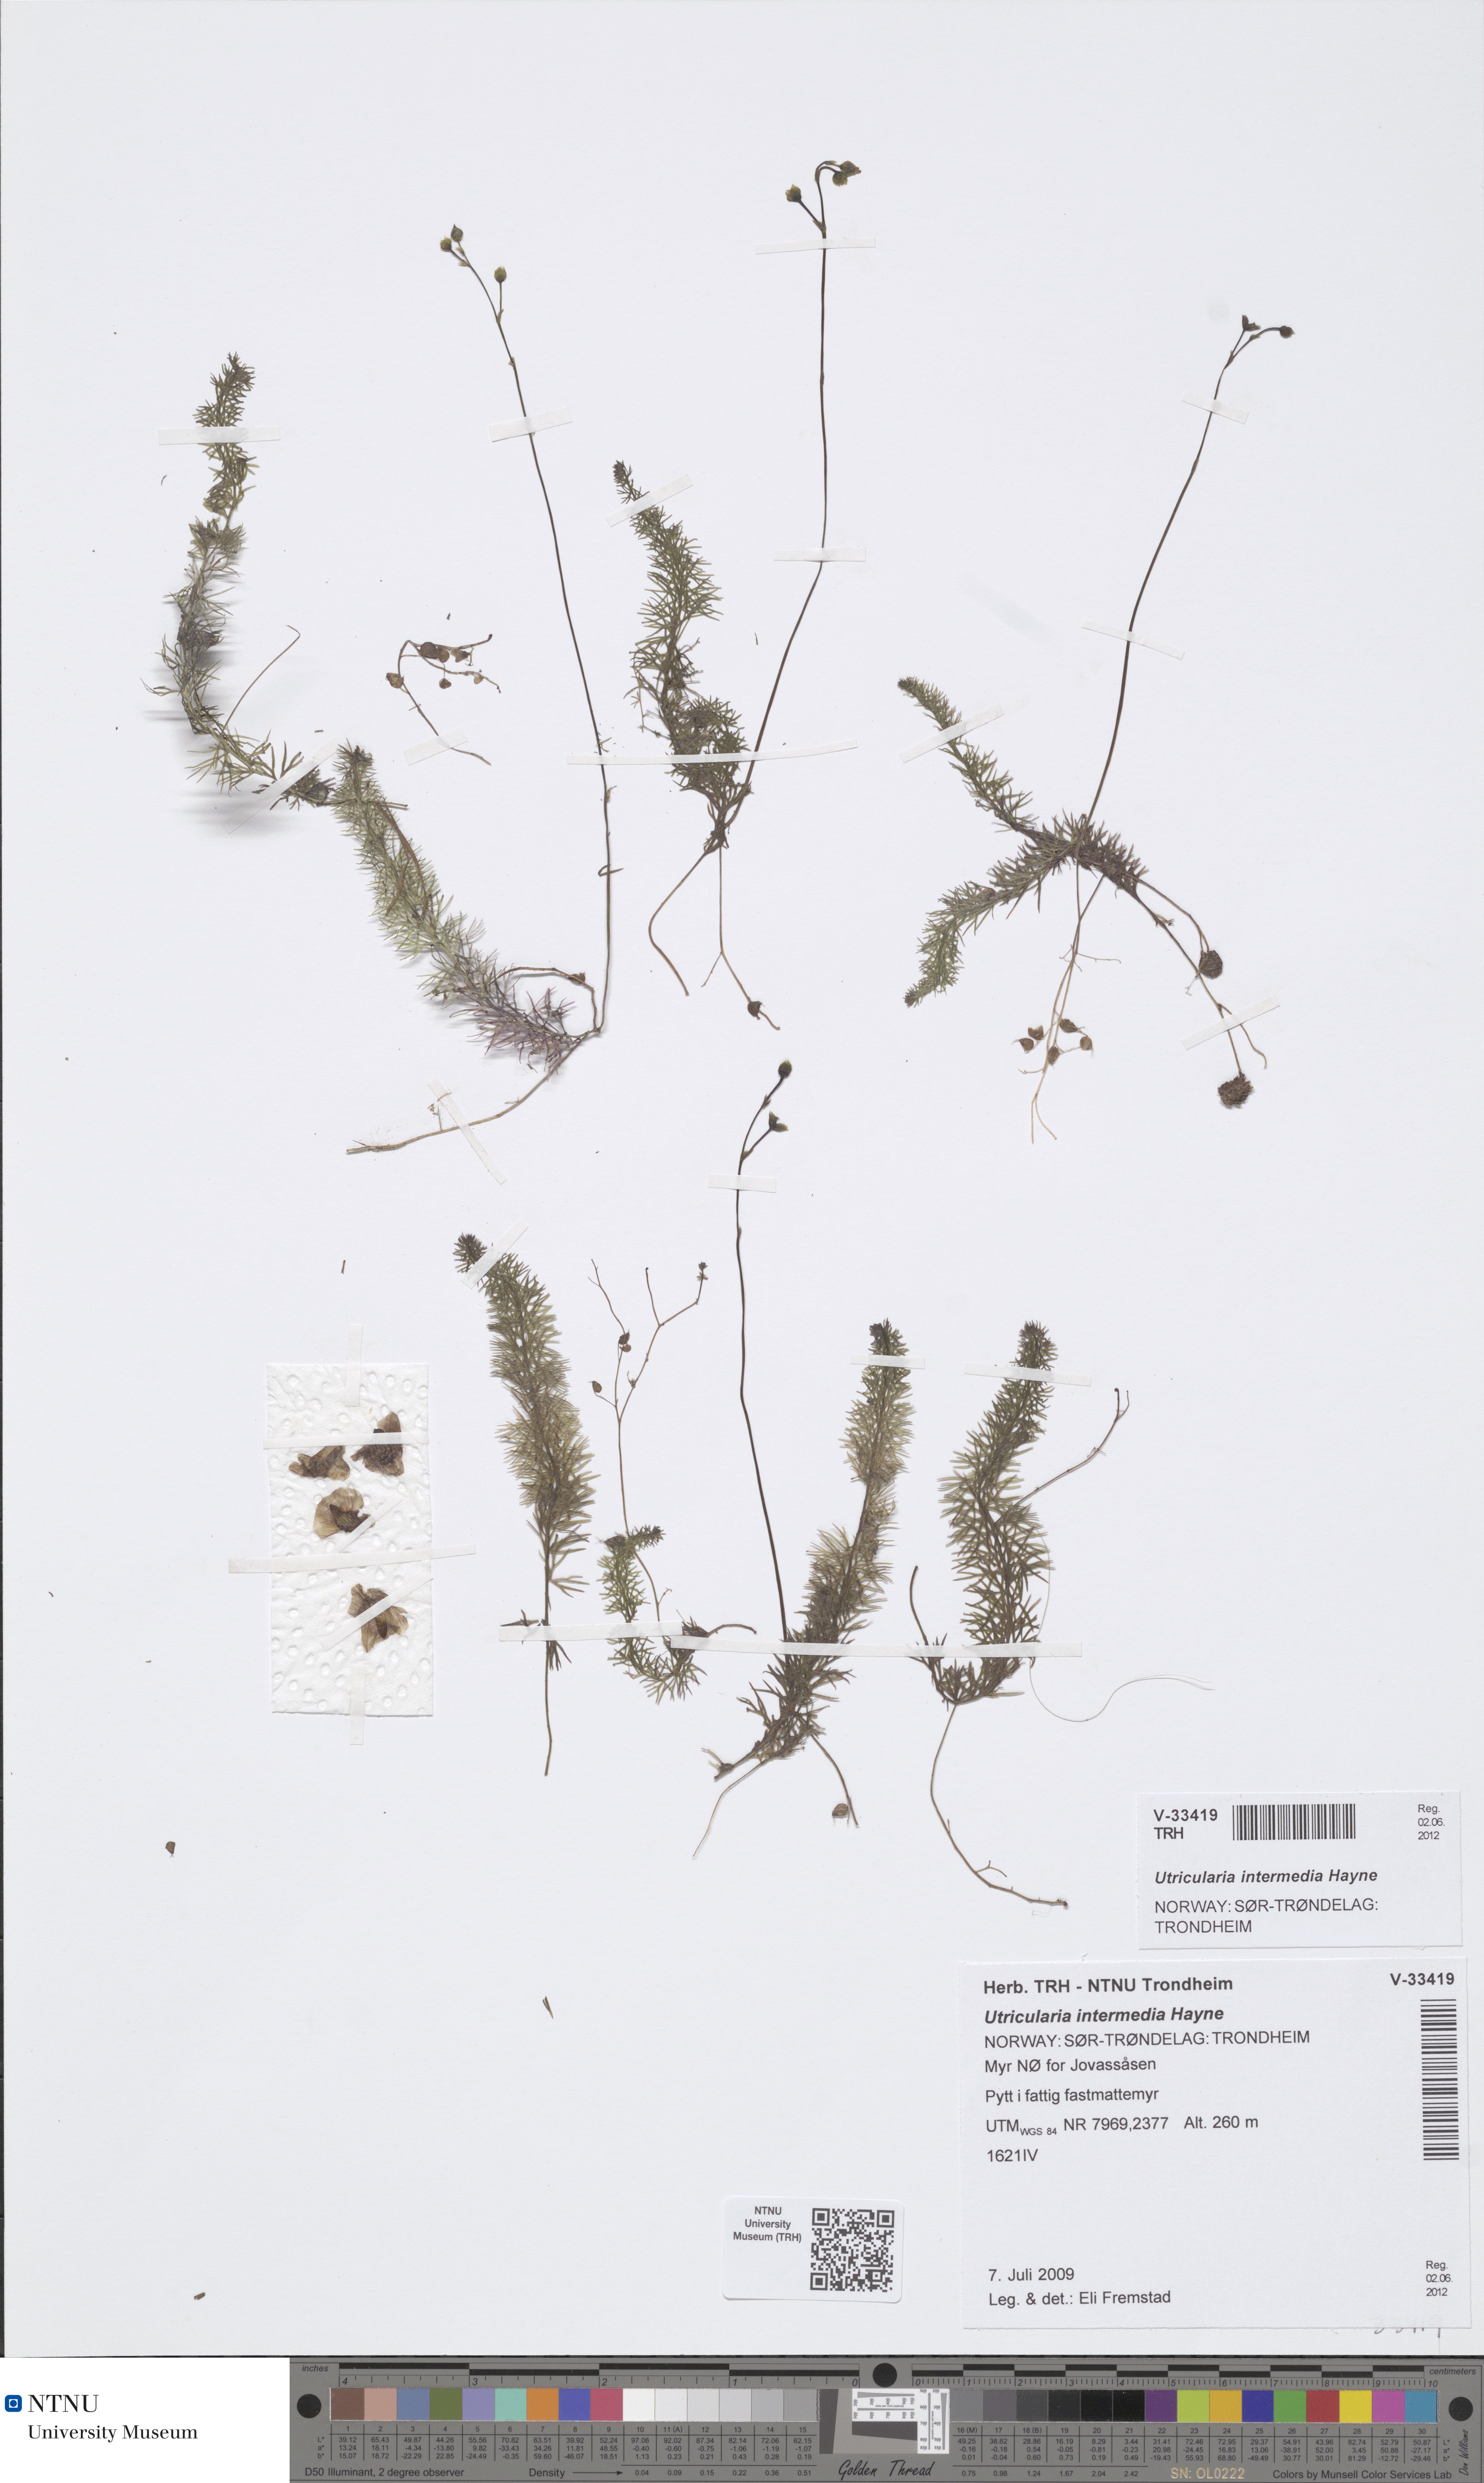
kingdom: Plantae
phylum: Tracheophyta
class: Magnoliopsida
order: Lamiales
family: Lentibulariaceae
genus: Utricularia
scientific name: Utricularia intermedia
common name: Intermediate bladderwort
